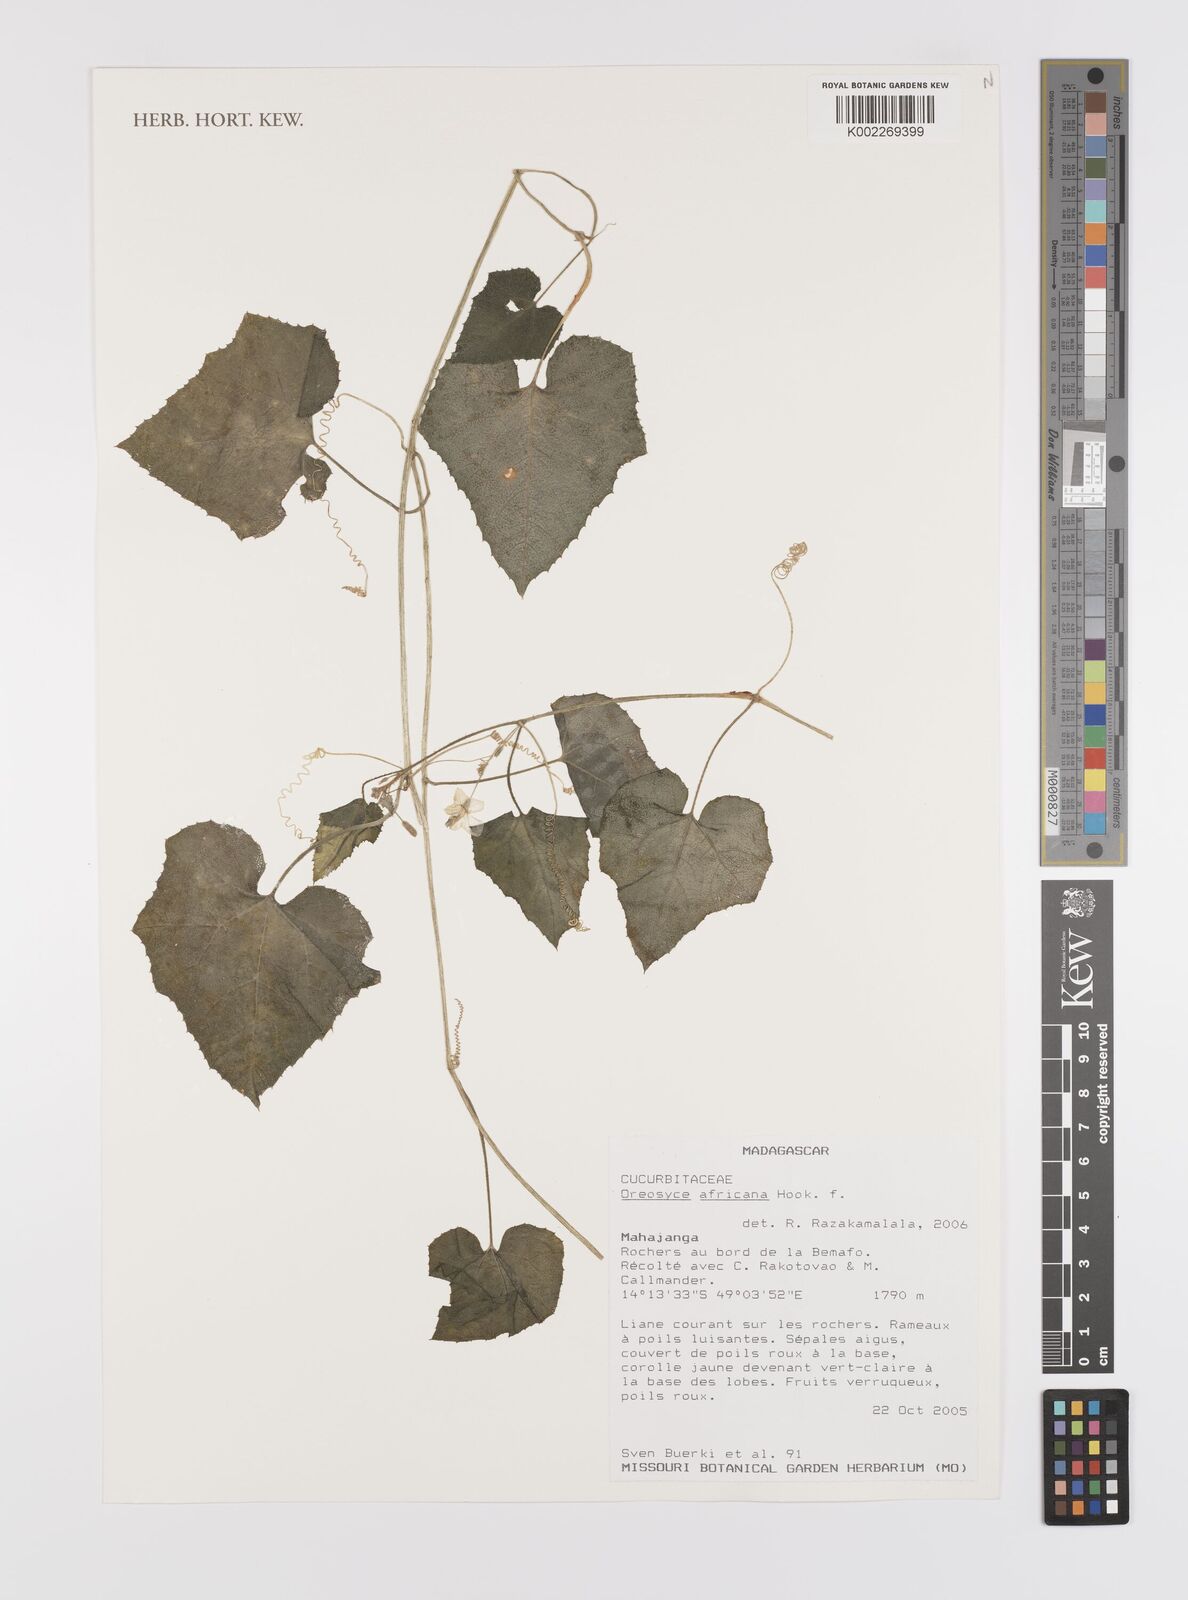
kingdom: Plantae
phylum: Tracheophyta
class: Magnoliopsida
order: Cucurbitales
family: Cucurbitaceae
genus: Cucumis
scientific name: Cucumis oreosyce
